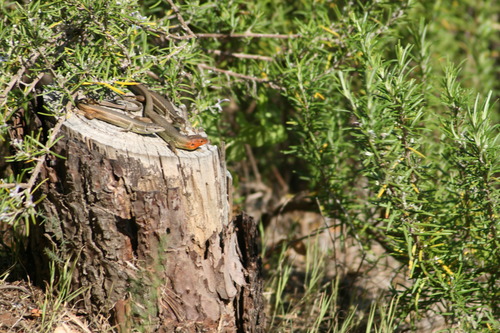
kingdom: Animalia
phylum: Chordata
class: Squamata
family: Lacertidae
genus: Psammodromus
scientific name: Psammodromus algirus
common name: Algerian psammodromus
